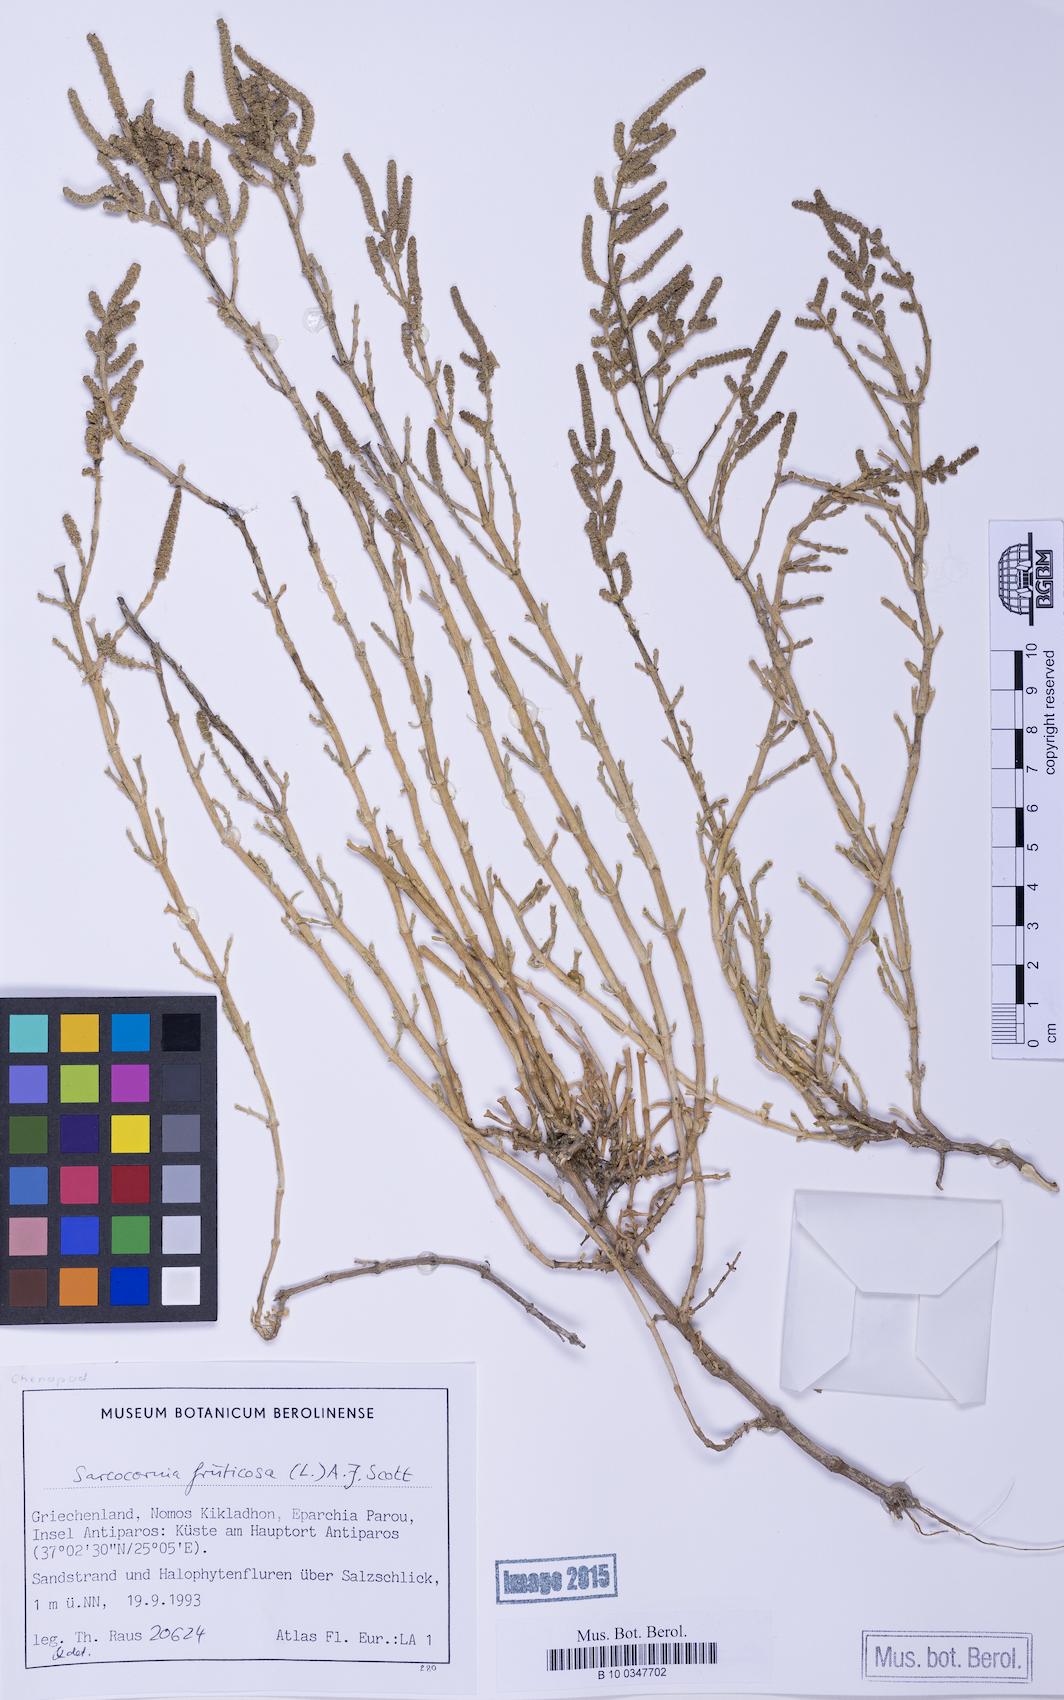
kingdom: Plantae
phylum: Tracheophyta
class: Magnoliopsida
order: Caryophyllales
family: Amaranthaceae
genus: Salicornia
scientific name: Salicornia perennis
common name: Chicken claws
